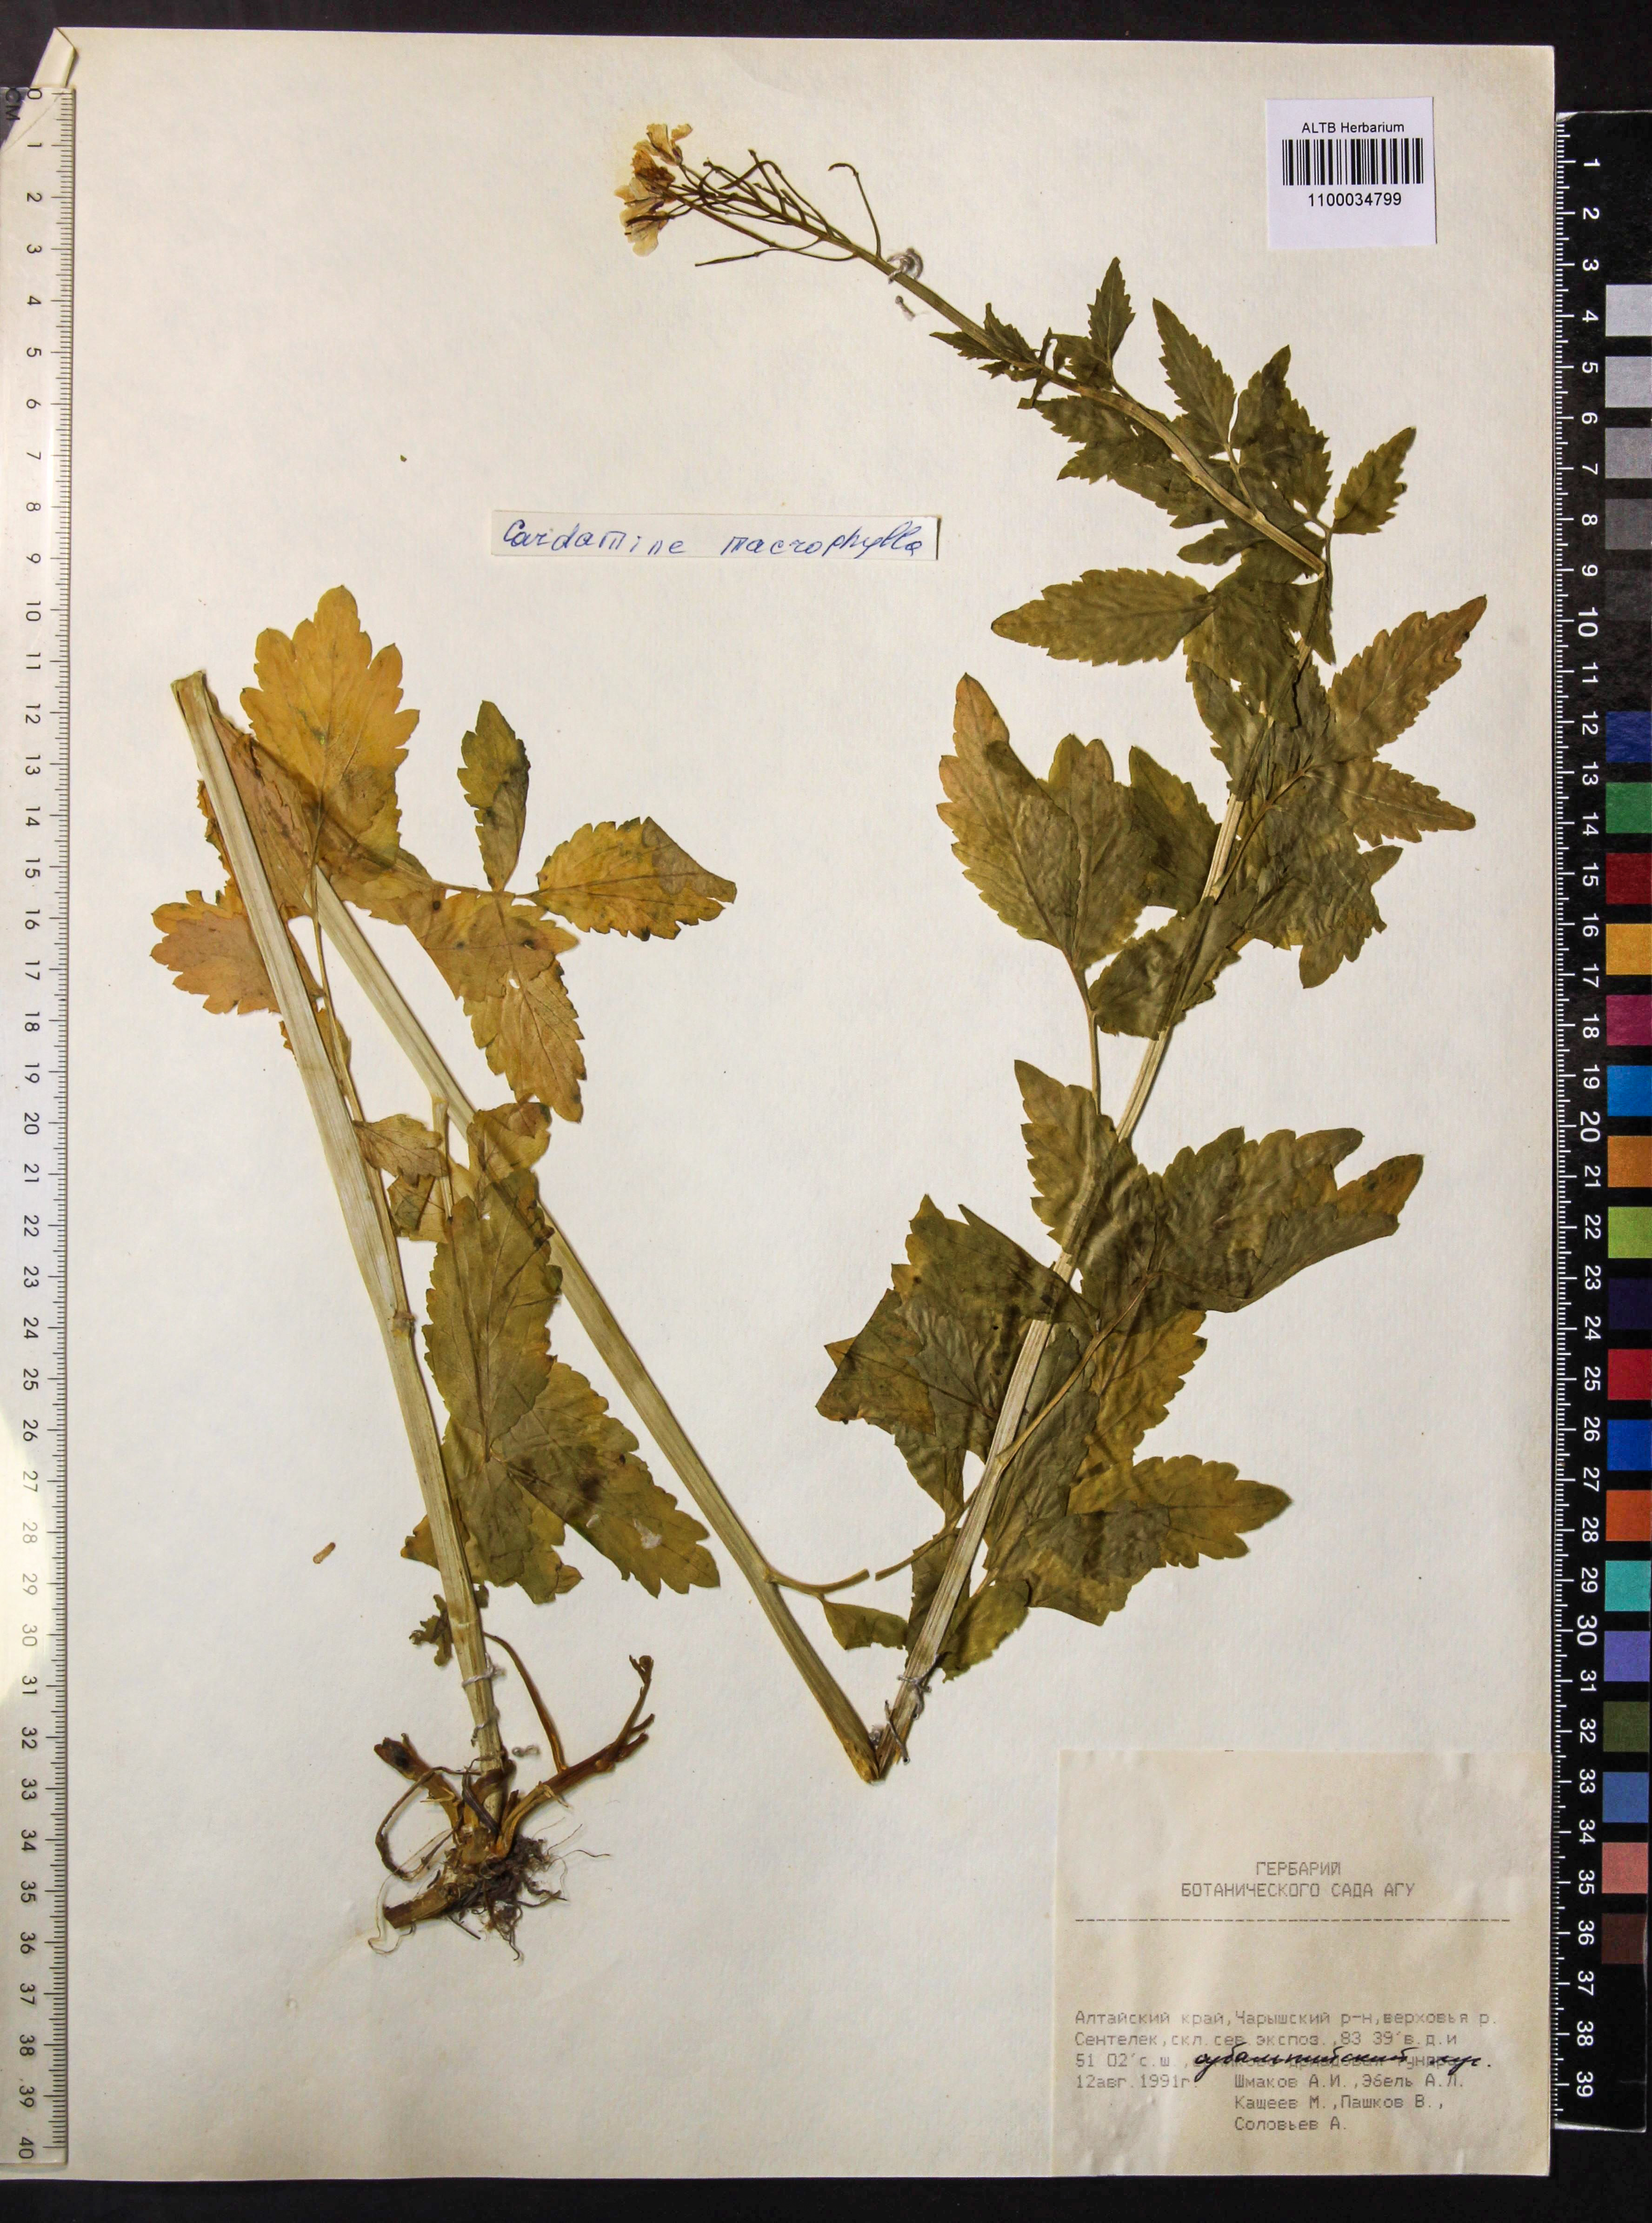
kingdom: Plantae
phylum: Tracheophyta
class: Magnoliopsida
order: Brassicales
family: Brassicaceae
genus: Cardamine
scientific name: Cardamine macrophylla
